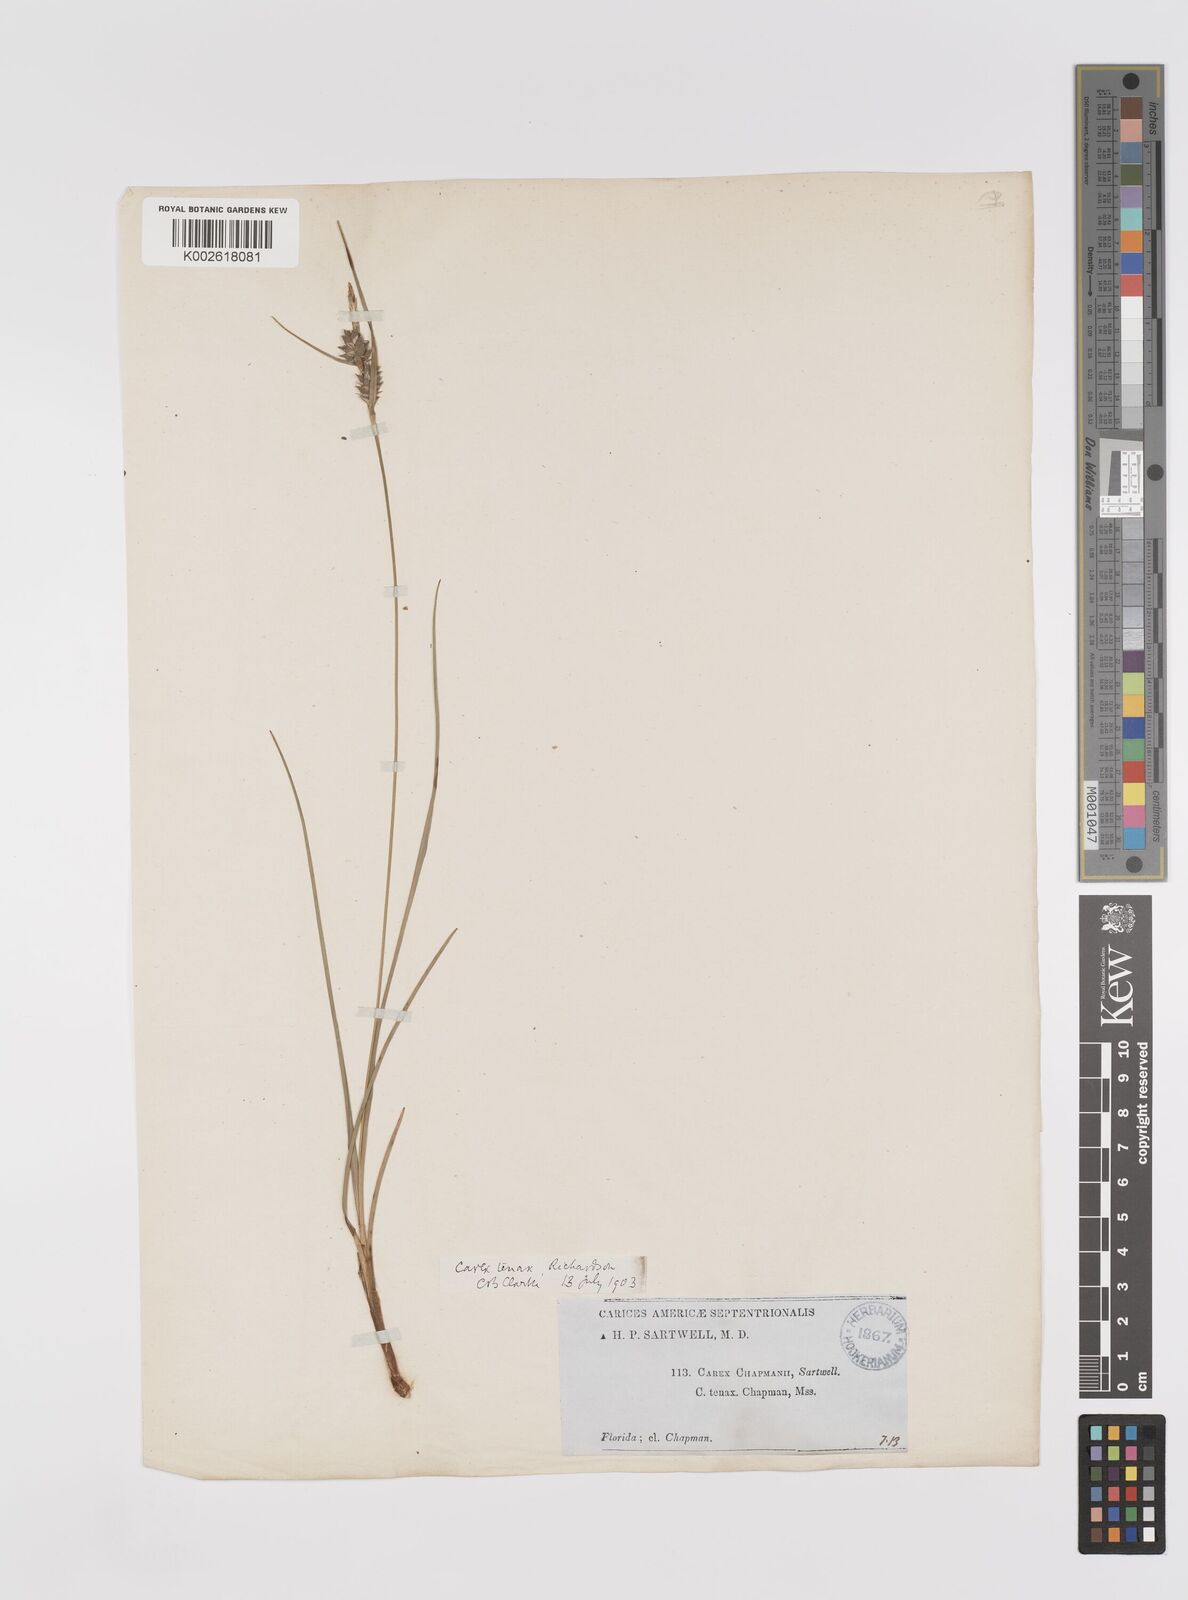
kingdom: Plantae
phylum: Tracheophyta
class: Liliopsida
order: Poales
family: Cyperaceae
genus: Carex
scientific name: Carex tenax
